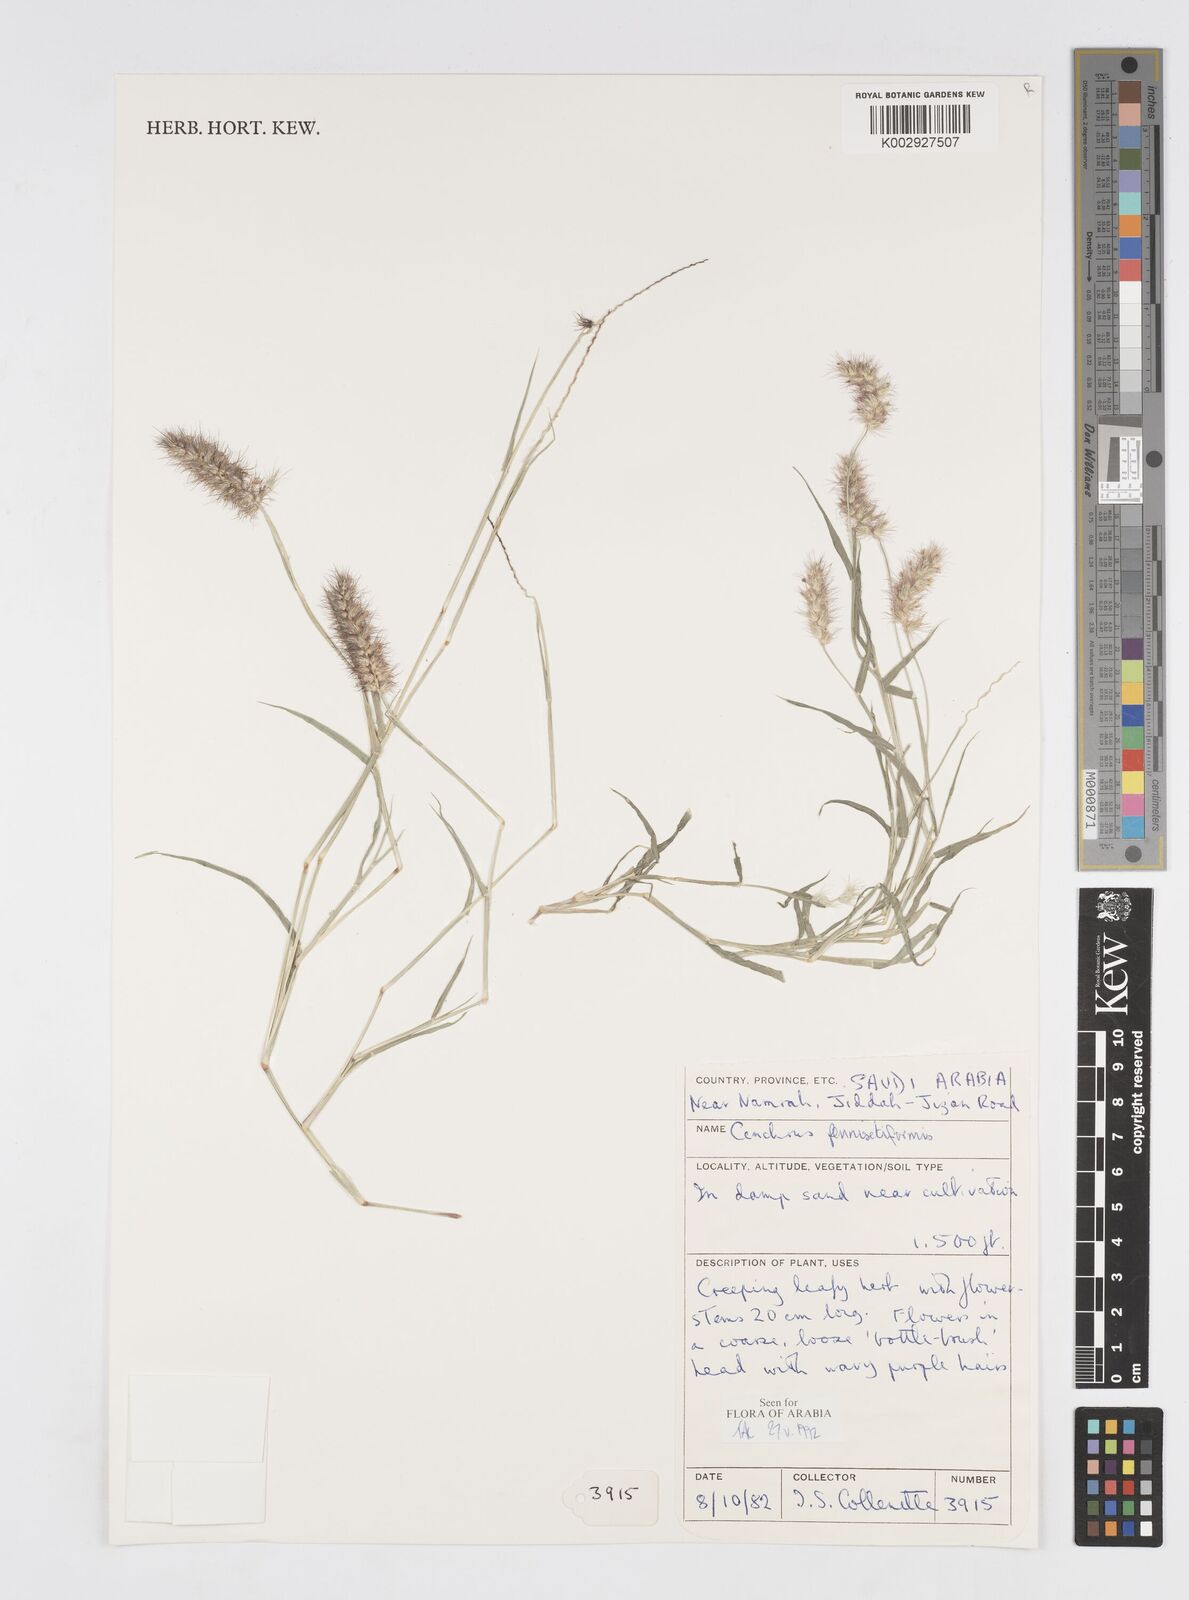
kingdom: Plantae
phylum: Tracheophyta
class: Liliopsida
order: Poales
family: Poaceae
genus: Cenchrus
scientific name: Cenchrus
